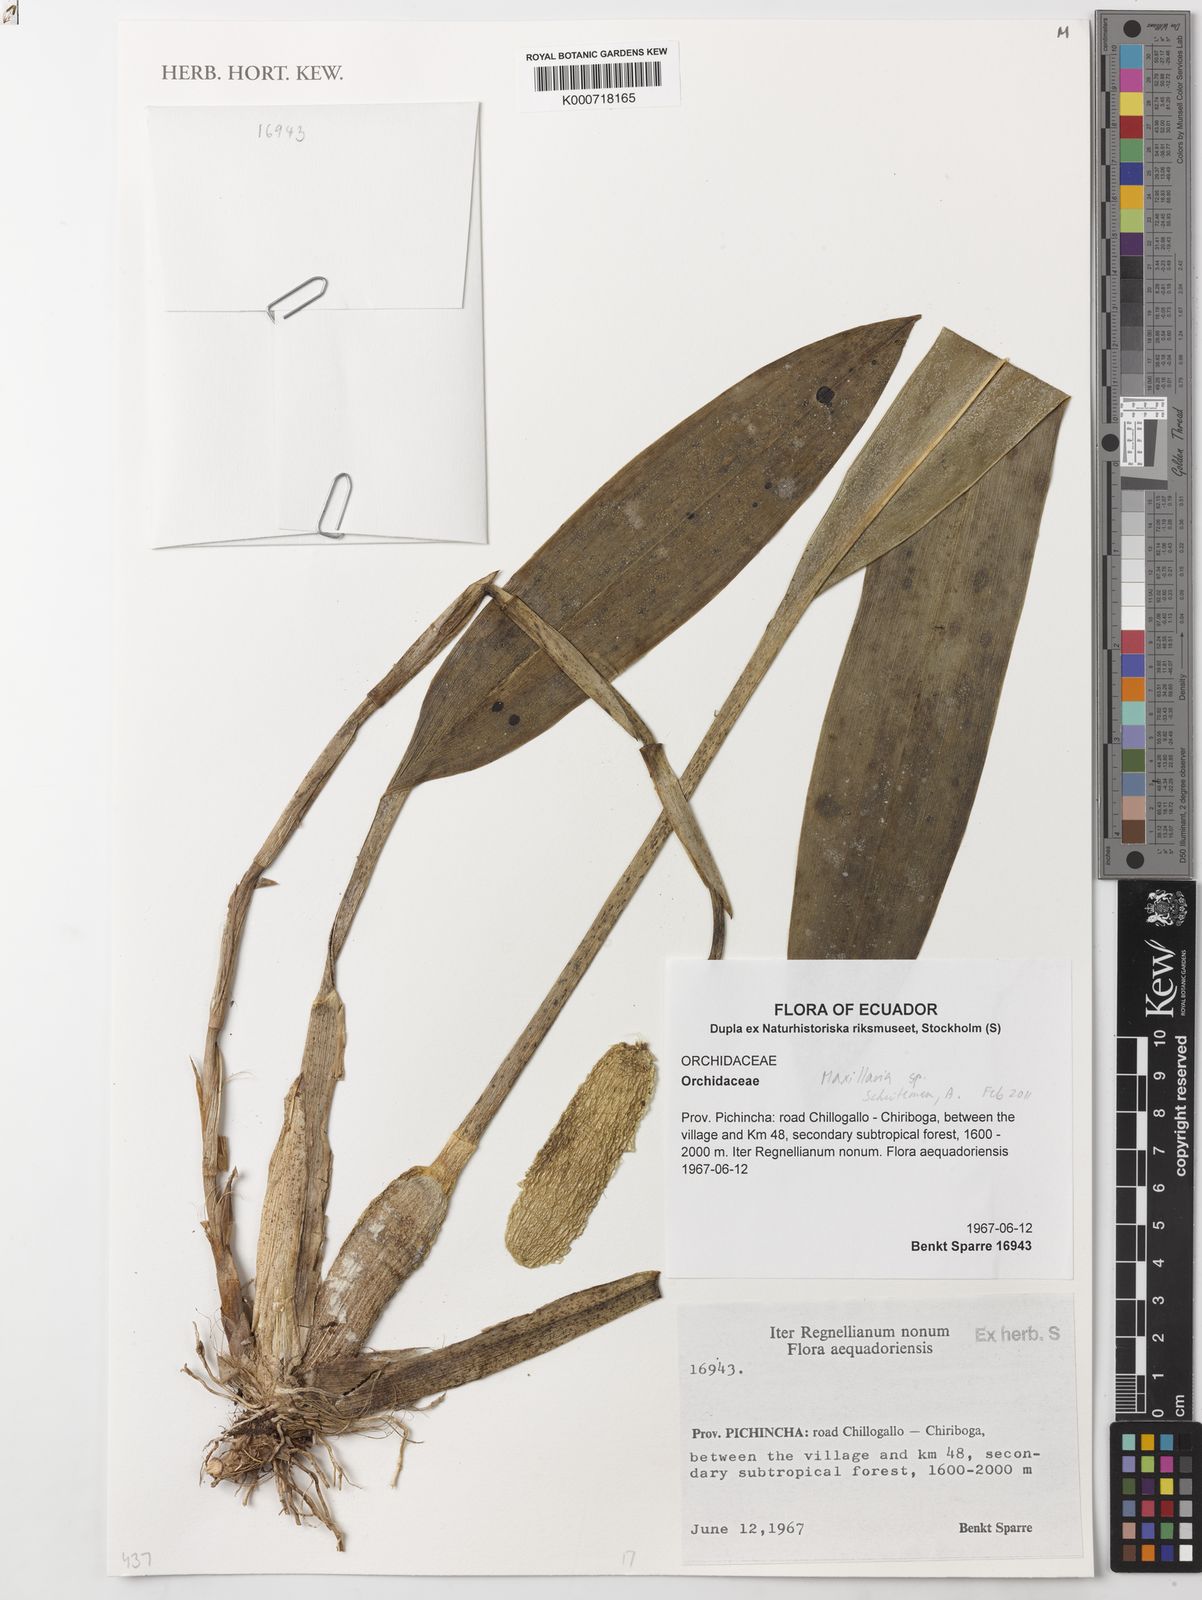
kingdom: Plantae
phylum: Tracheophyta
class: Liliopsida
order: Asparagales
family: Orchidaceae
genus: Maxillaria
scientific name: Maxillaria
